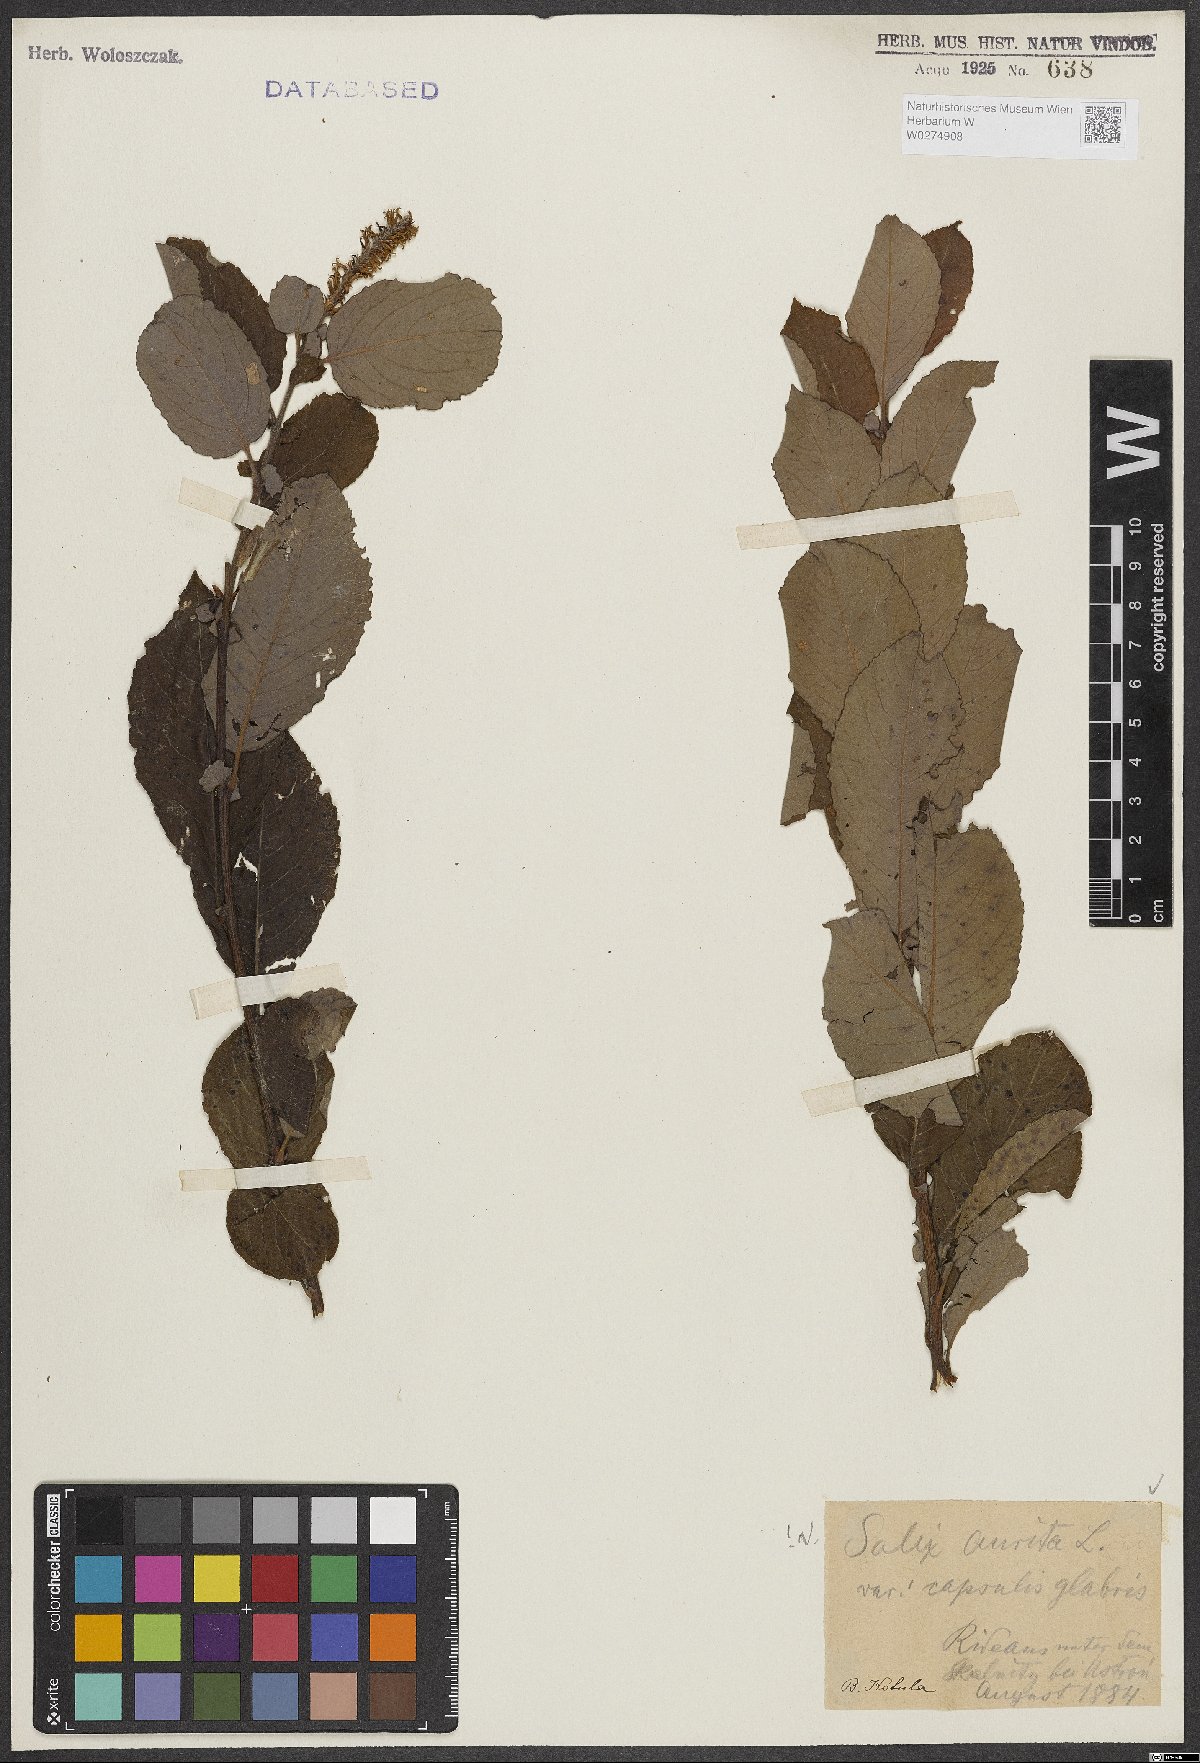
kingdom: Plantae
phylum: Tracheophyta
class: Magnoliopsida
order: Malpighiales
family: Salicaceae
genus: Salix
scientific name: Salix aurita
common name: Eared willow
